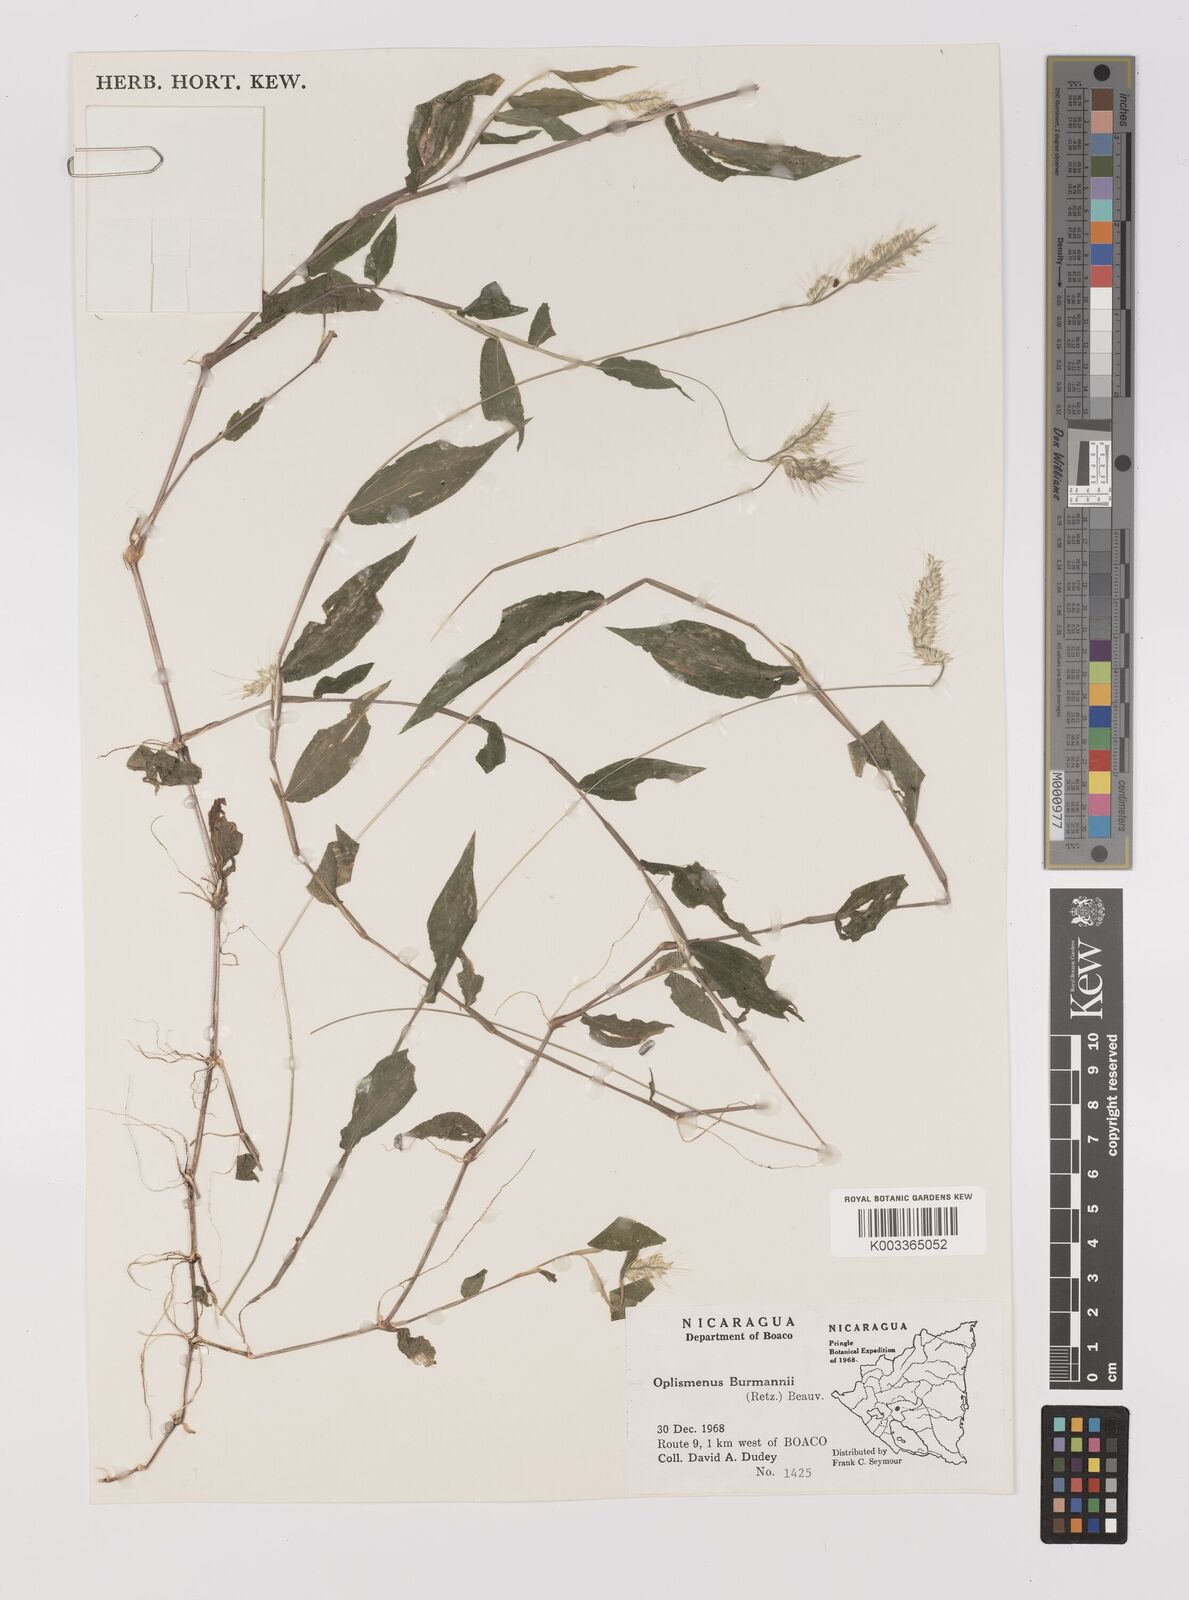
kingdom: Plantae
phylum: Tracheophyta
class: Liliopsida
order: Poales
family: Poaceae
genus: Oplismenus
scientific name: Oplismenus burmanni
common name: Burmann's basketgrass
